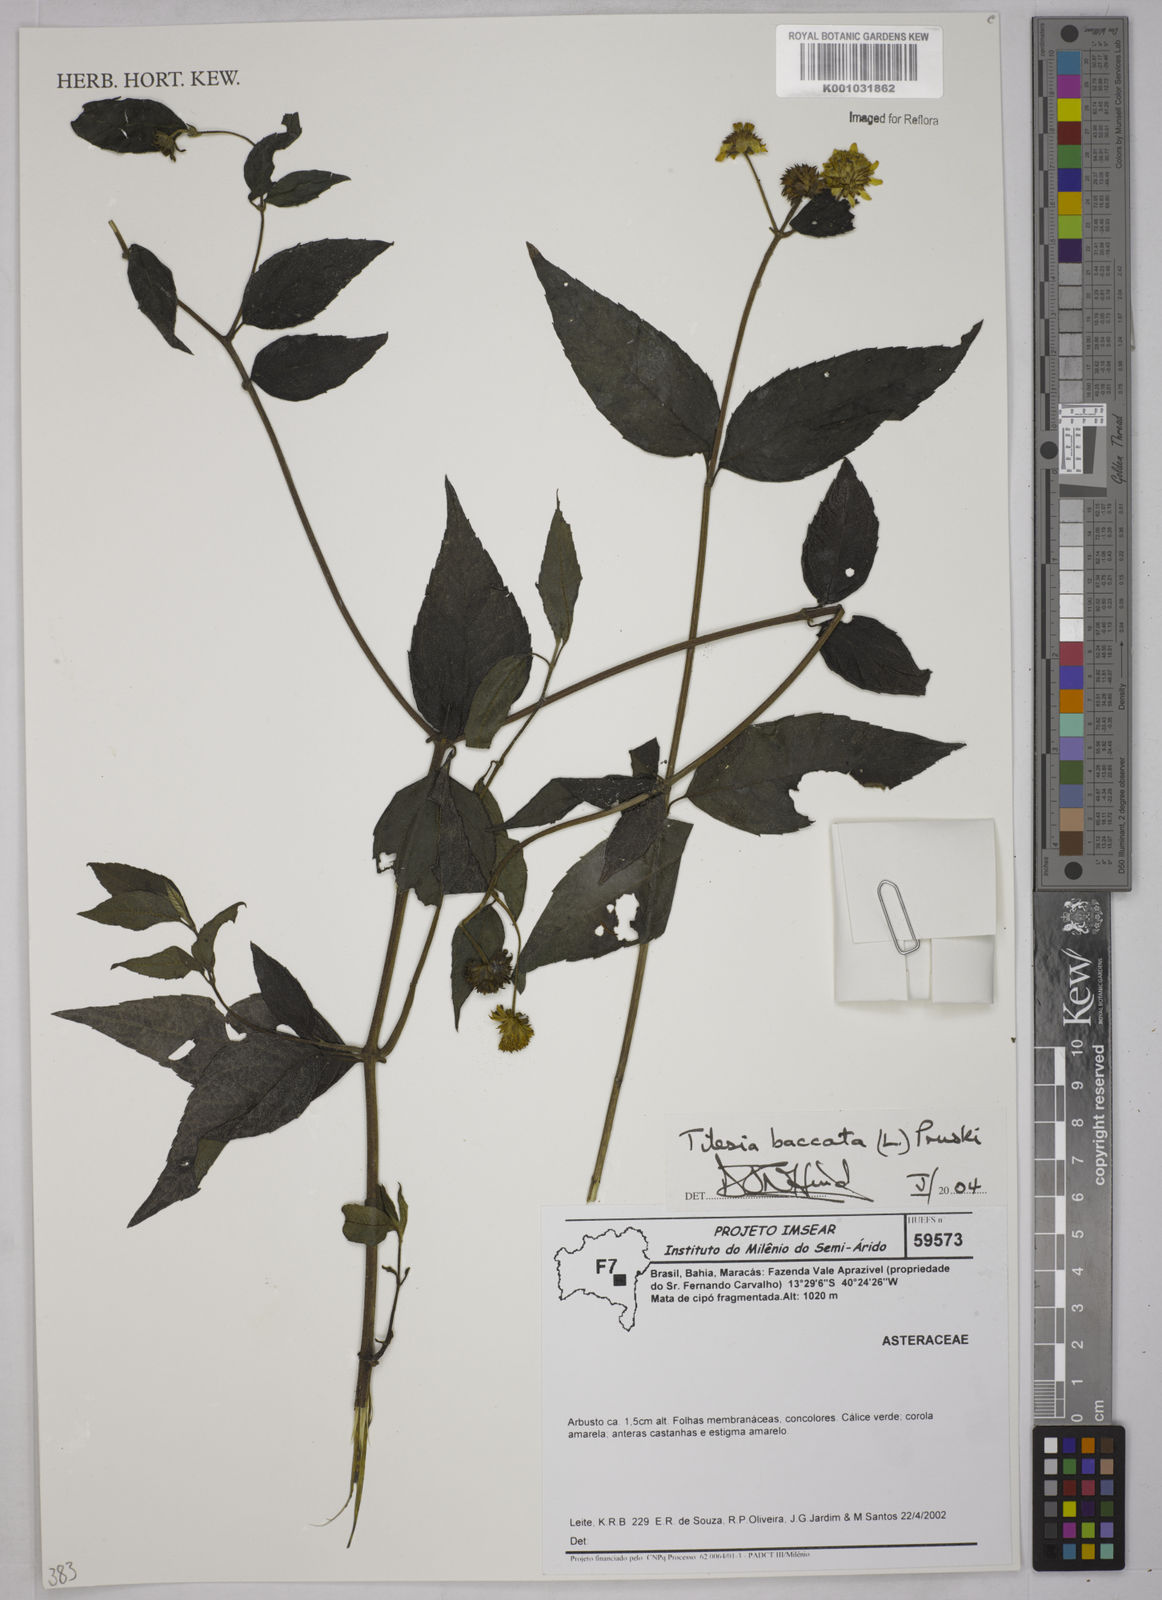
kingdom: Plantae
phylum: Tracheophyta
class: Magnoliopsida
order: Asterales
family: Asteraceae
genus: Tilesia
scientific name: Tilesia baccata
